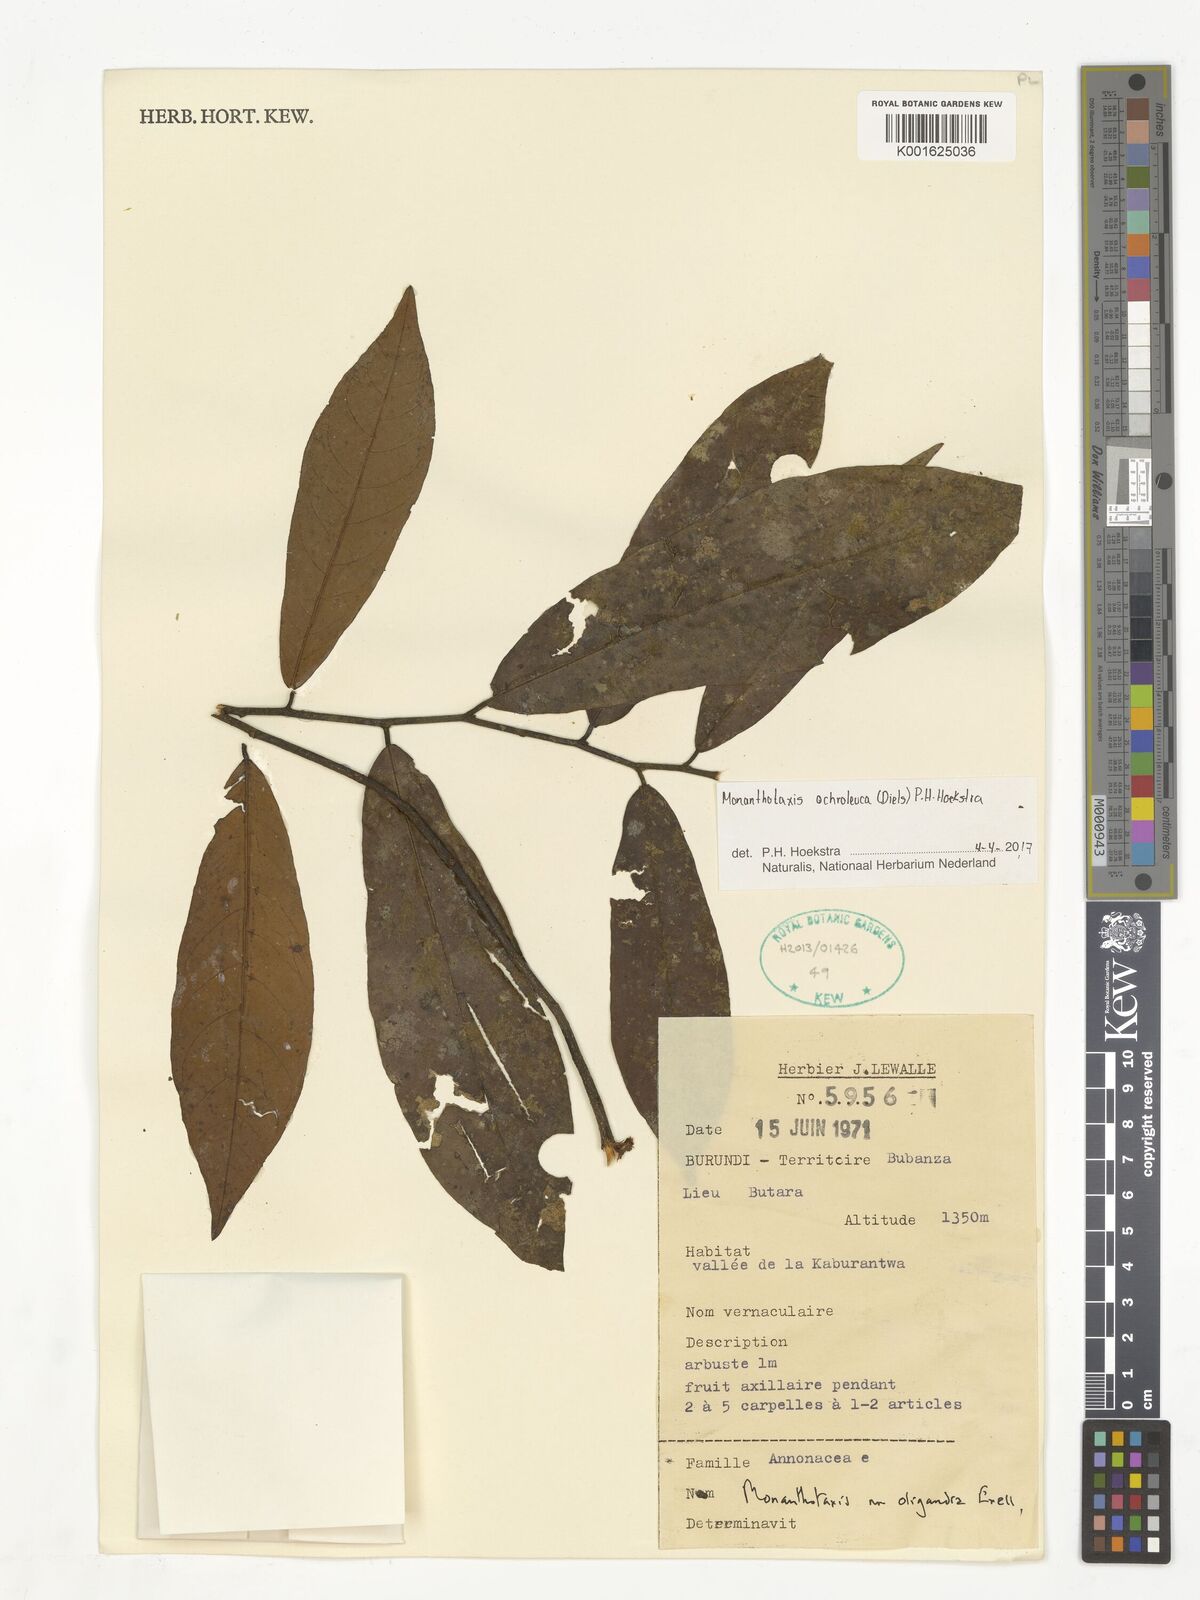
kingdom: Plantae
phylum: Tracheophyta
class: Magnoliopsida
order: Magnoliales
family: Annonaceae
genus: Monanthotaxis
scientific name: Monanthotaxis
